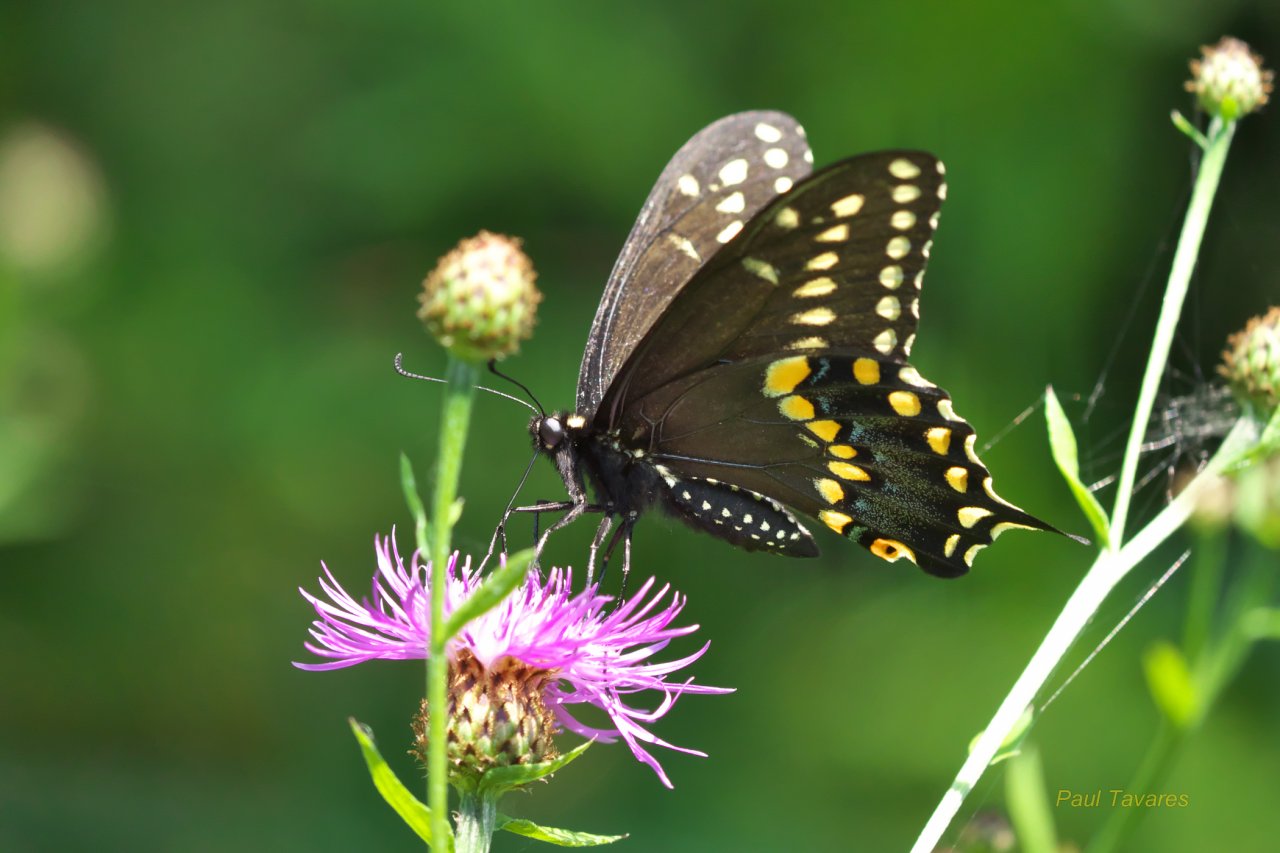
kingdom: Animalia
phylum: Arthropoda
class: Insecta
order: Lepidoptera
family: Papilionidae
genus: Papilio
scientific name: Papilio polyxenes
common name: Black Swallowtail
